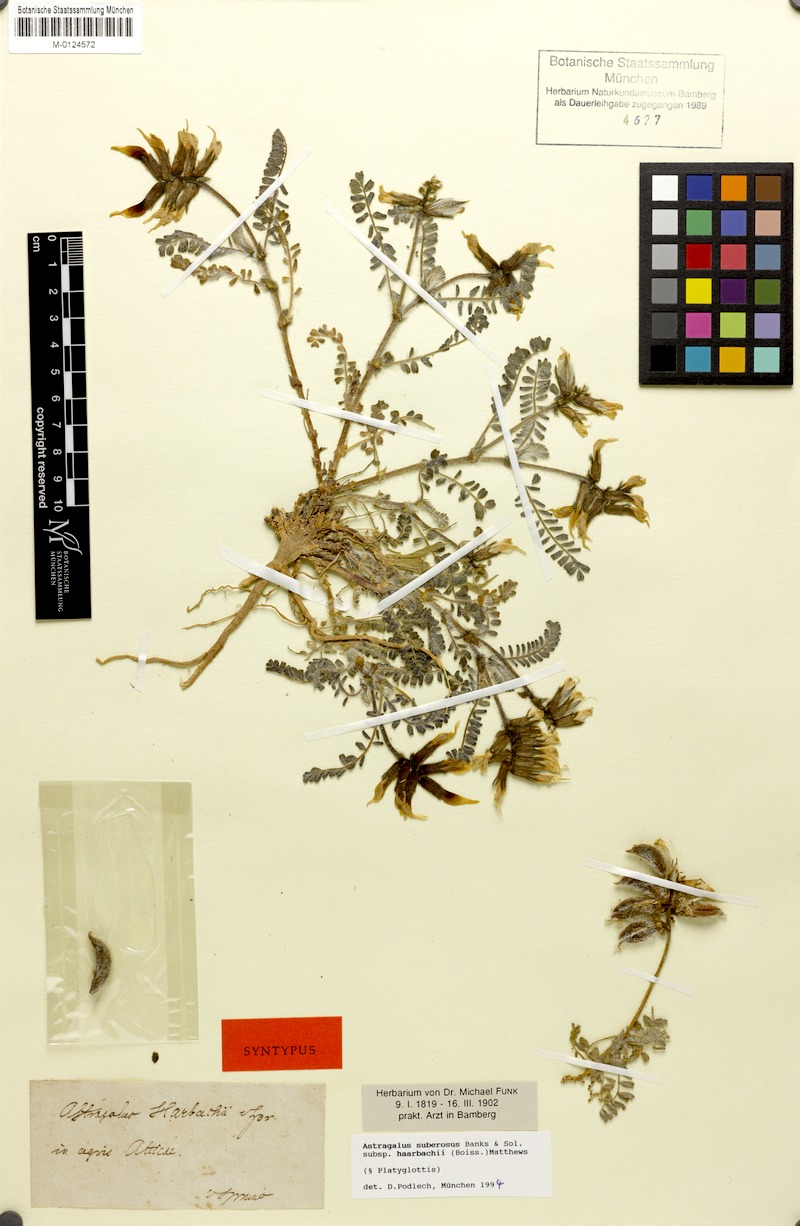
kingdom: Plantae
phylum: Tracheophyta
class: Magnoliopsida
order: Fabales
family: Fabaceae
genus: Astragalus
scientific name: Astragalus suberosus
